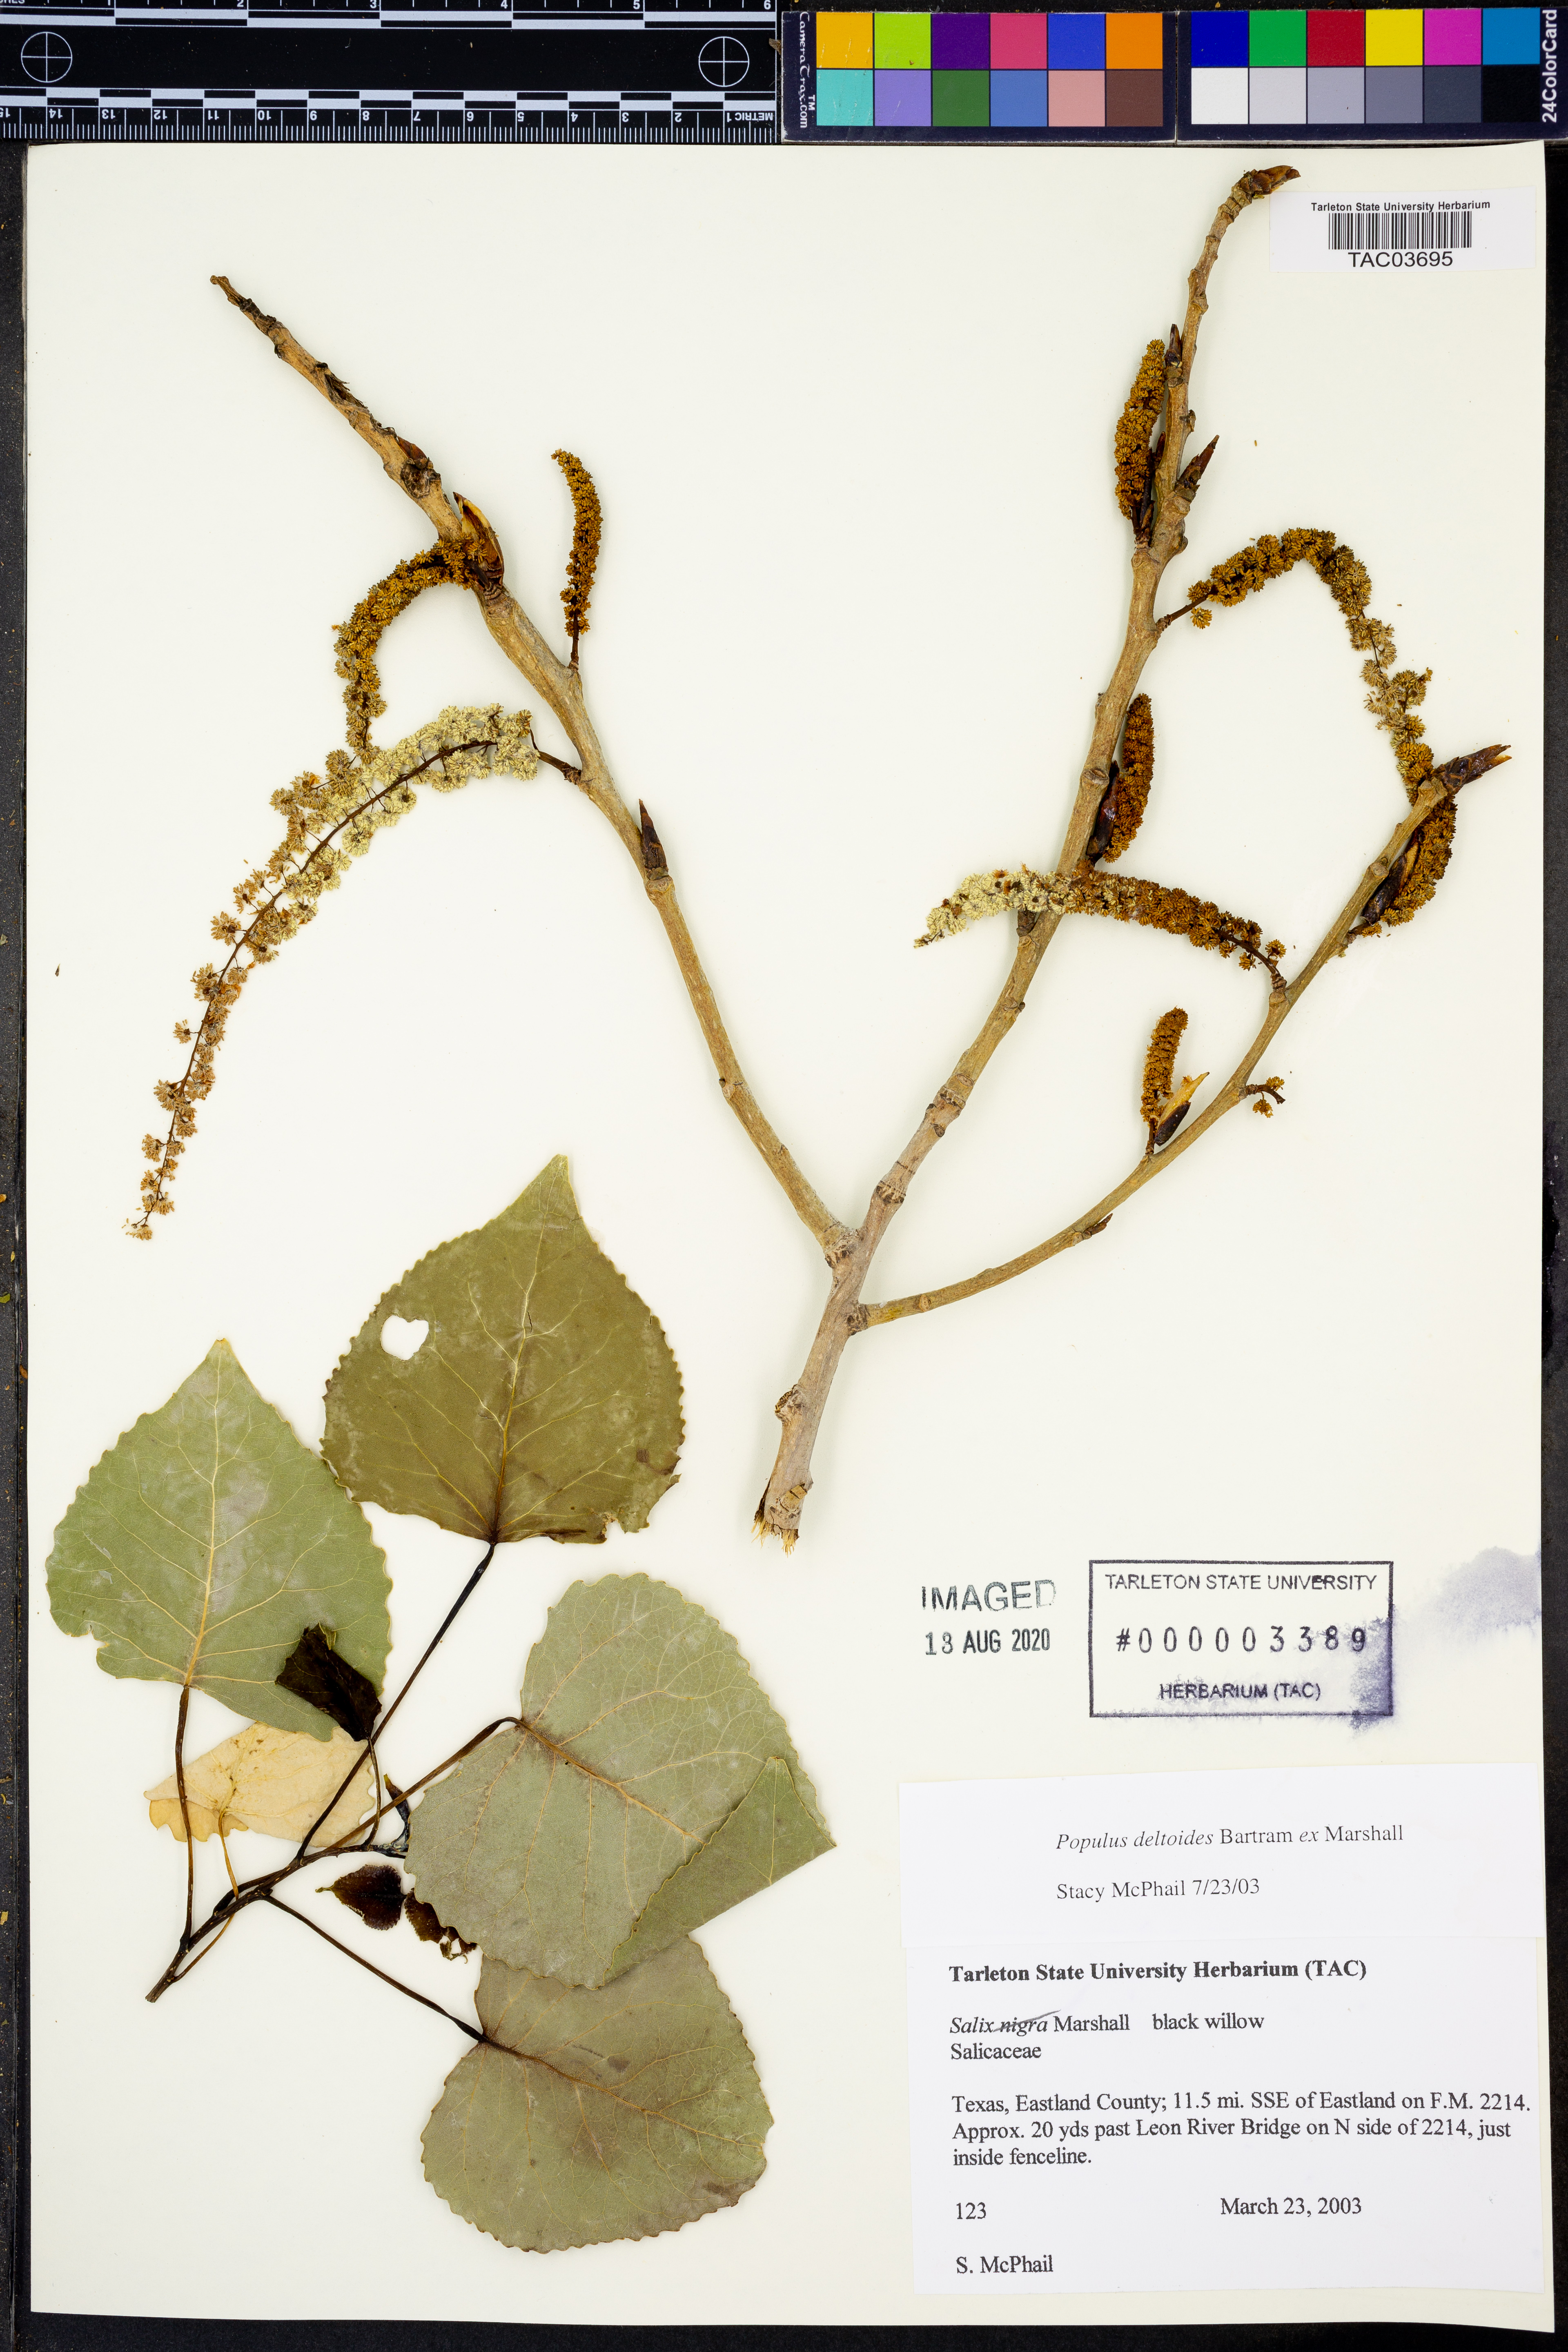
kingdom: Plantae
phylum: Tracheophyta
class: Magnoliopsida
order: Malpighiales
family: Salicaceae
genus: Populus
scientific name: Populus deltoides
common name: Eastern cottonwood
